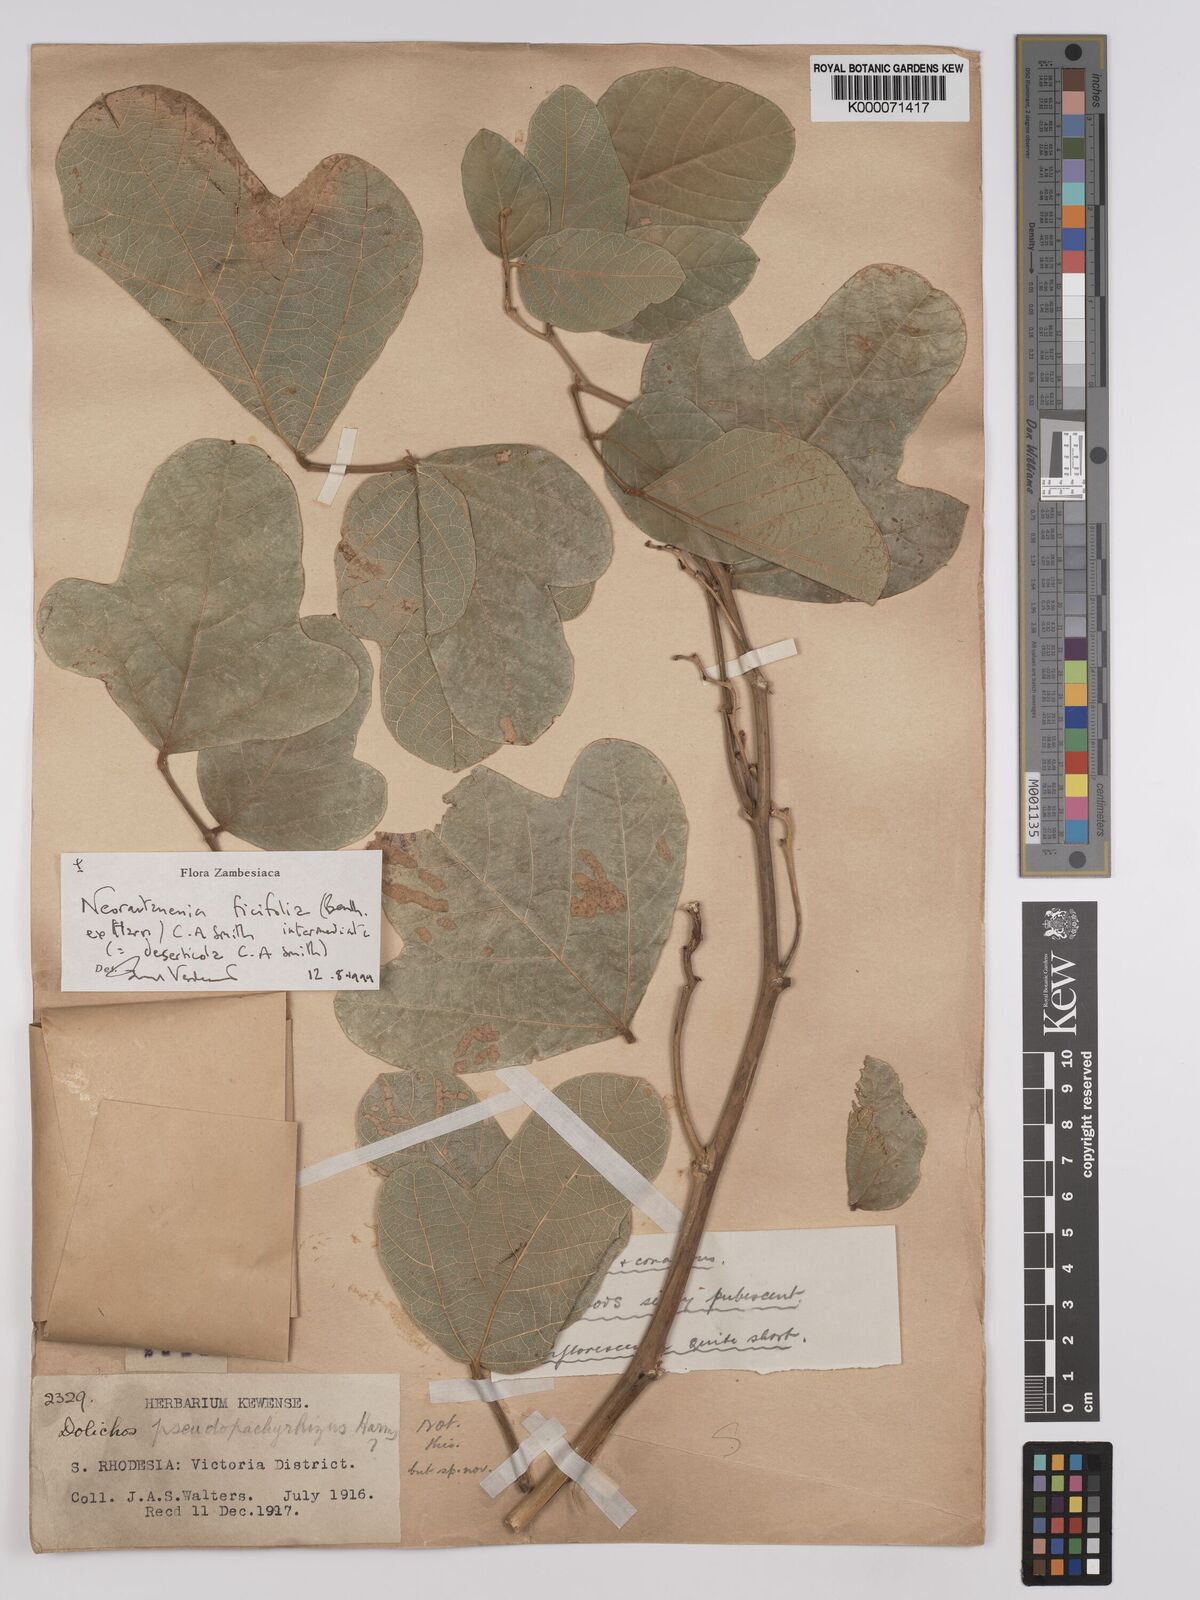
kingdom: Plantae
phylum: Tracheophyta
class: Magnoliopsida
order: Fabales
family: Fabaceae
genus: Neorautanenia
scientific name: Neorautanenia
